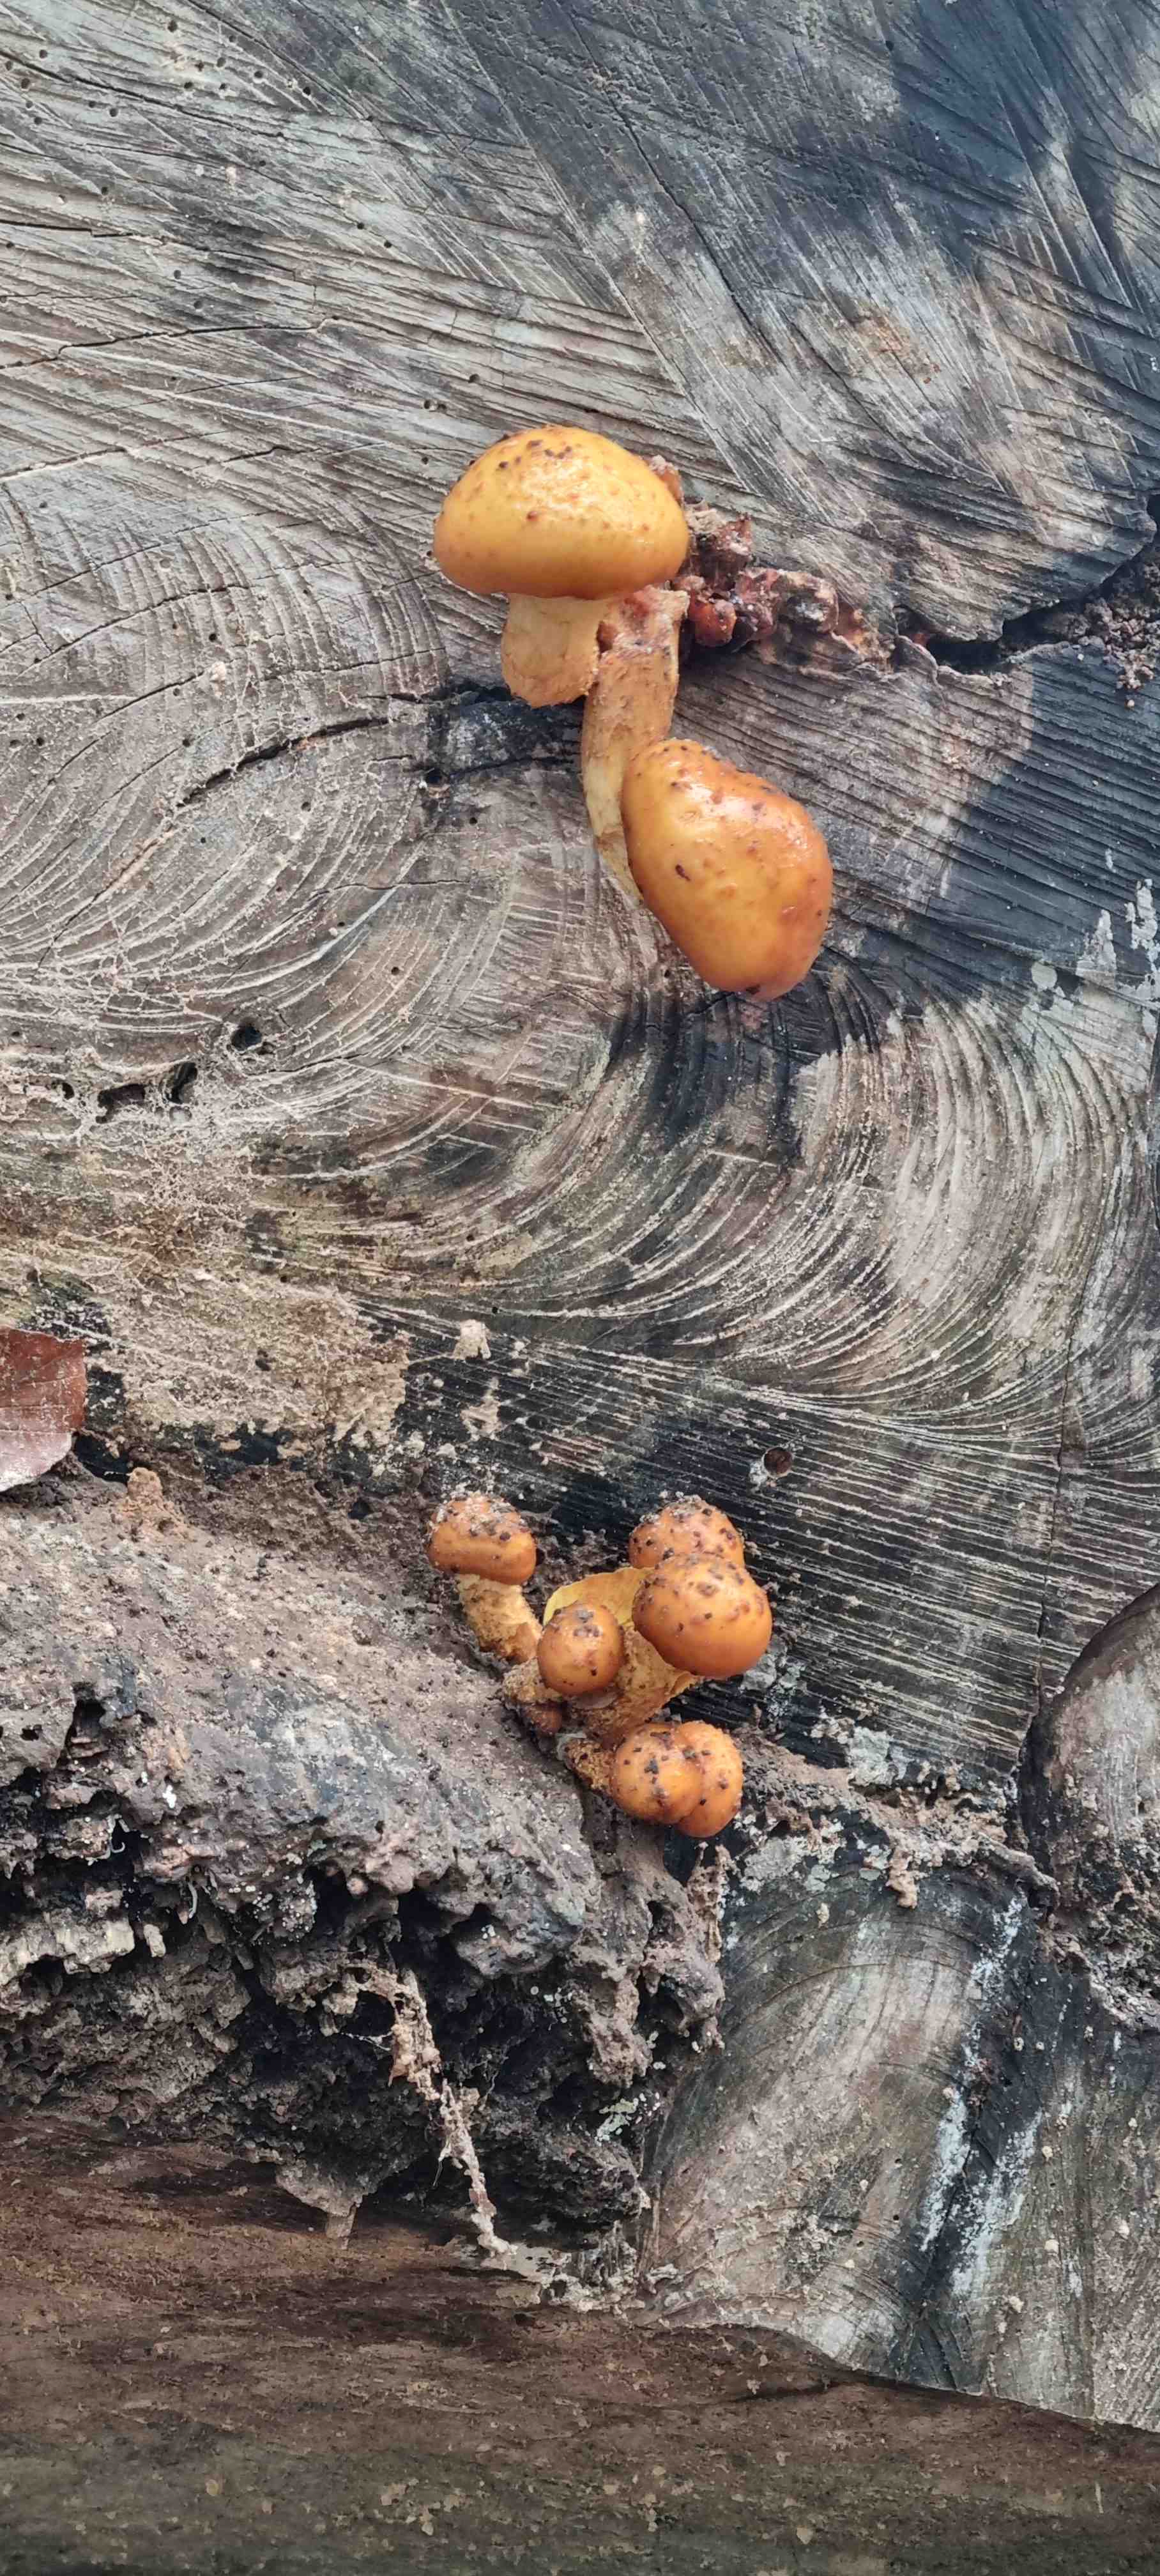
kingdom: Fungi
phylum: Basidiomycota
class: Agaricomycetes
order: Agaricales
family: Strophariaceae
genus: Pholiota
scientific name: Pholiota adiposa
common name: højtsiddende skælhat
